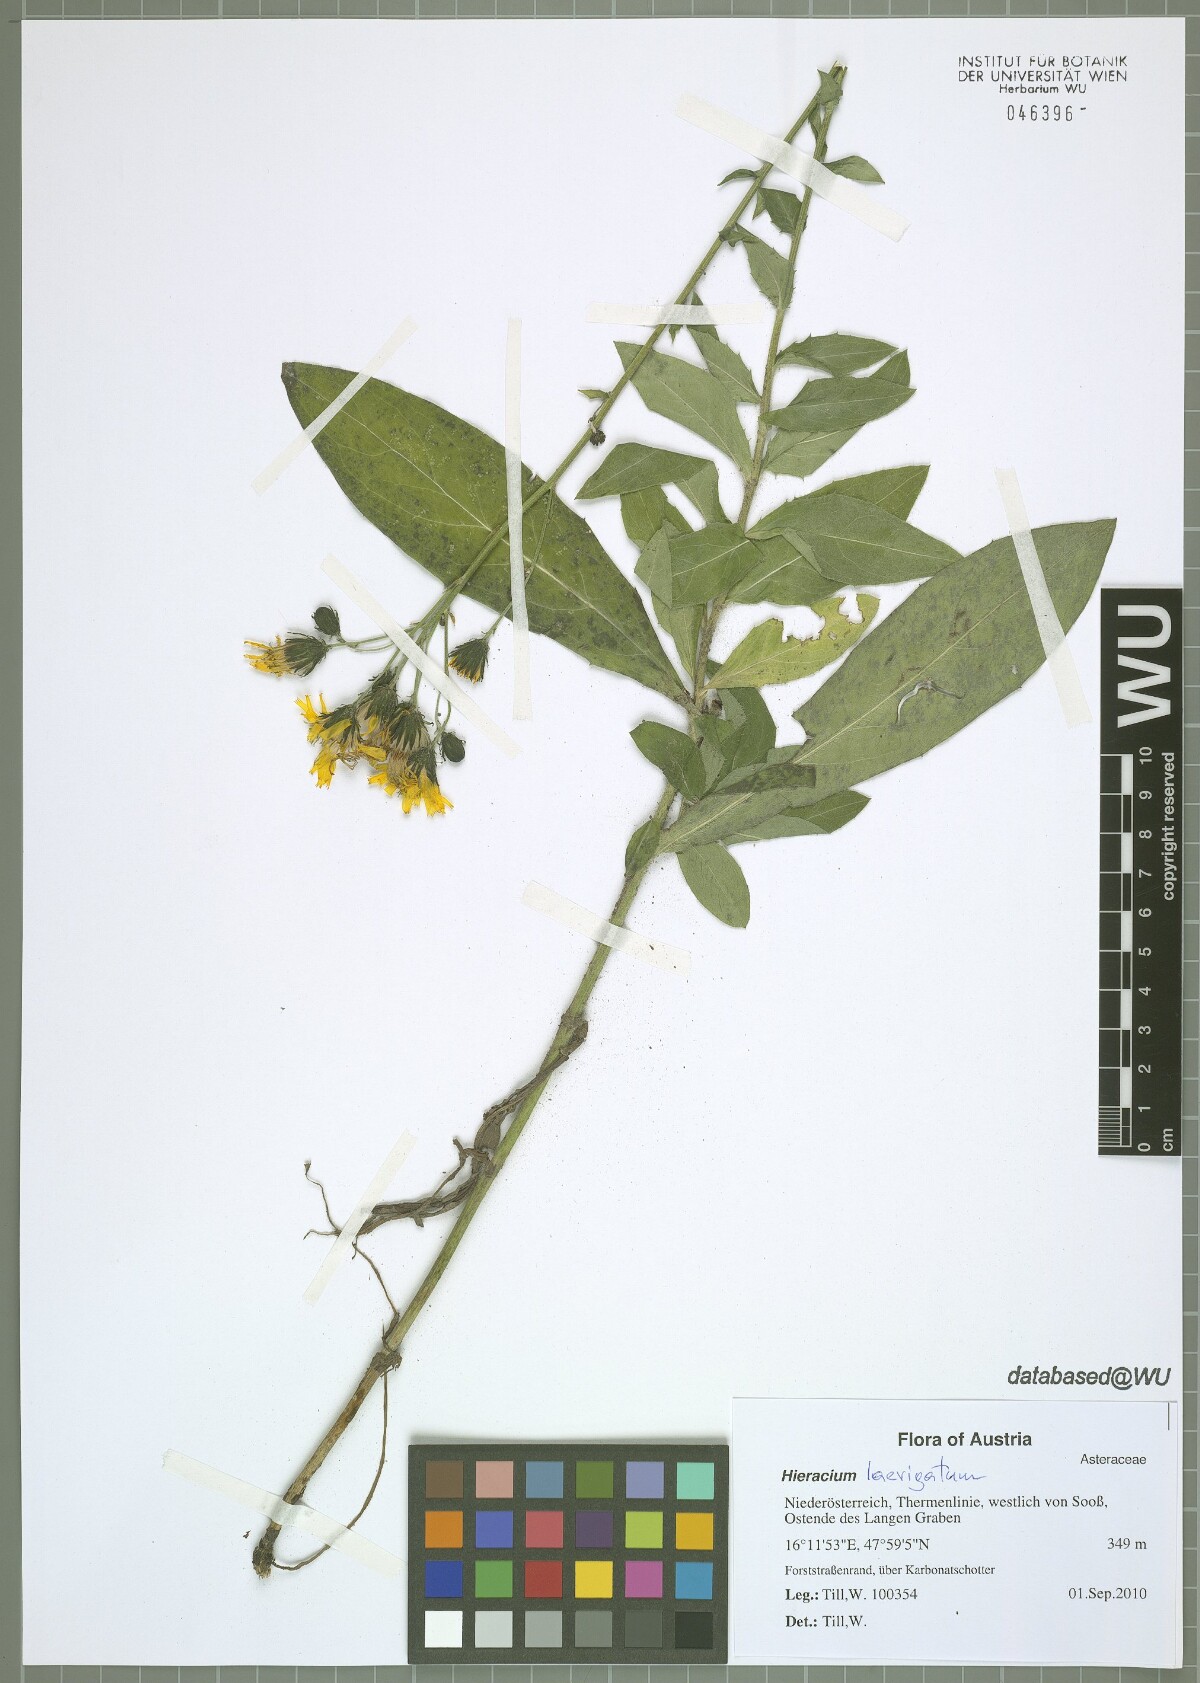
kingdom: Plantae
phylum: Tracheophyta
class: Magnoliopsida
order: Asterales
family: Asteraceae
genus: Hieracium
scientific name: Hieracium sabaudum
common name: New england hawkweed
